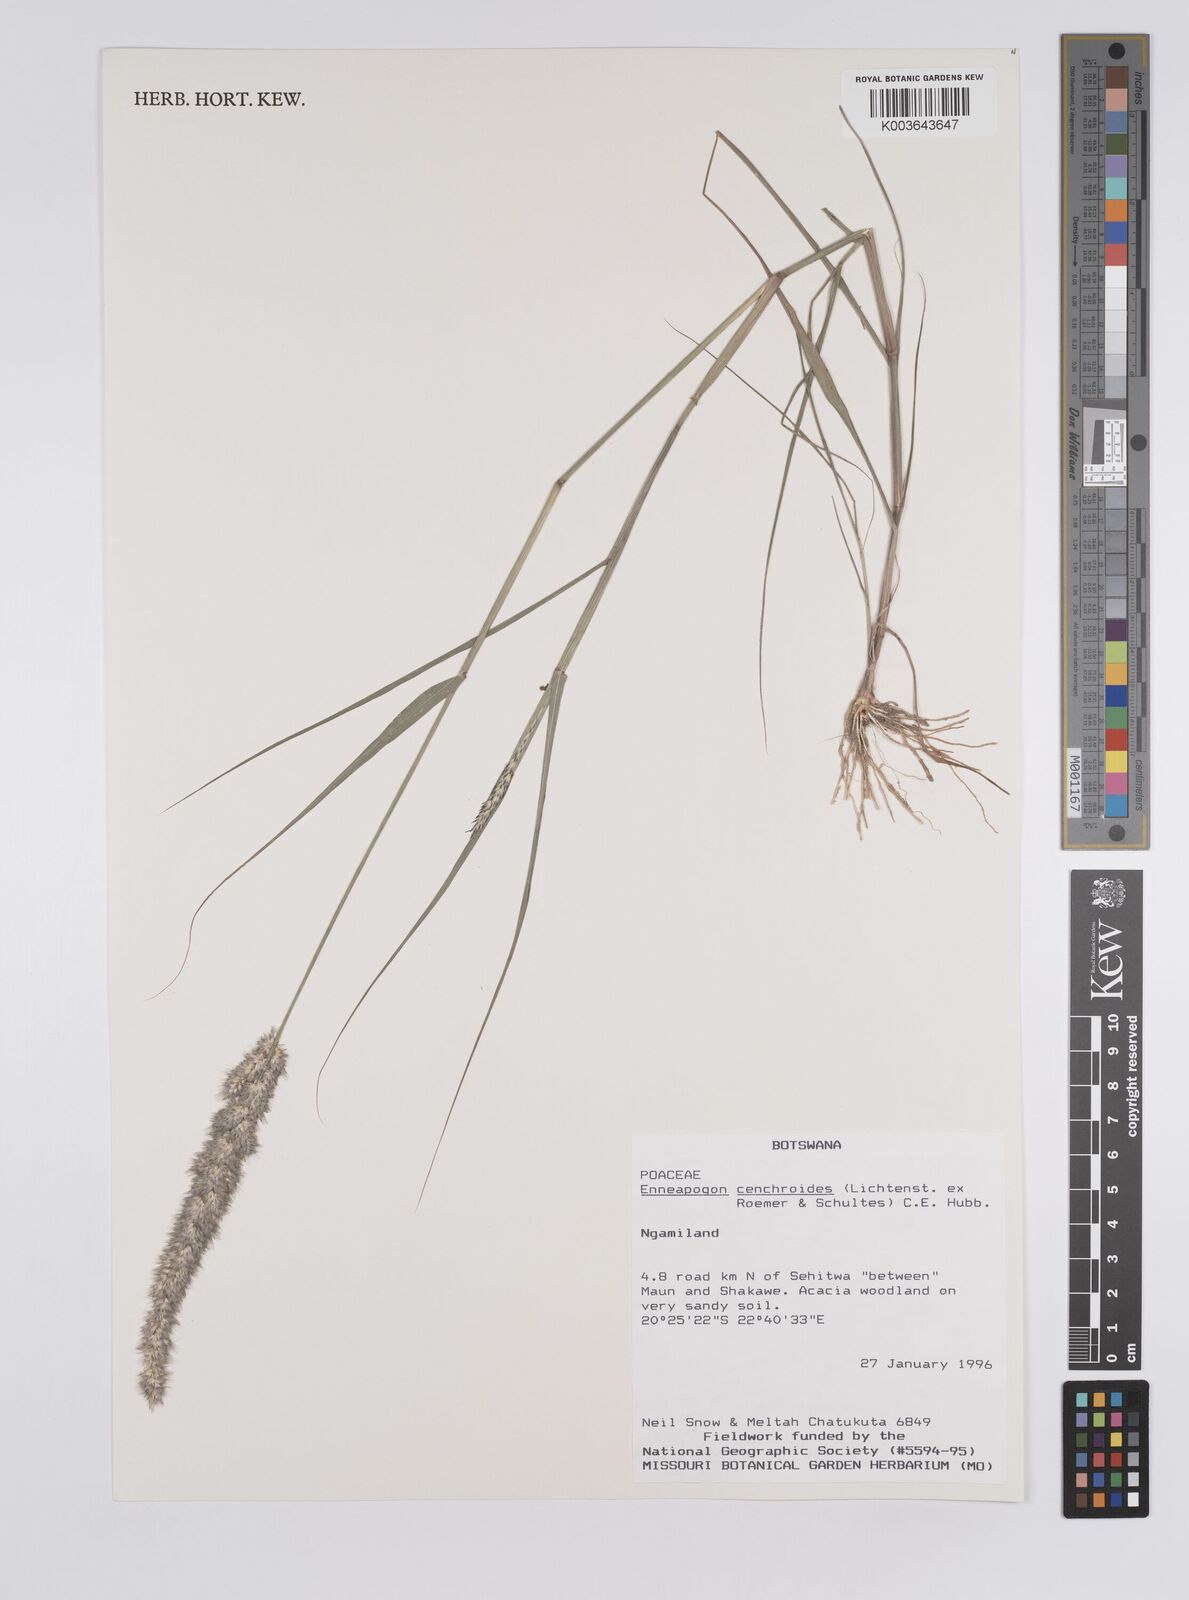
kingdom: Plantae
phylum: Tracheophyta
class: Liliopsida
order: Poales
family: Poaceae
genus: Enneapogon
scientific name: Enneapogon cenchroides
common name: Soft feather pappusgrass
